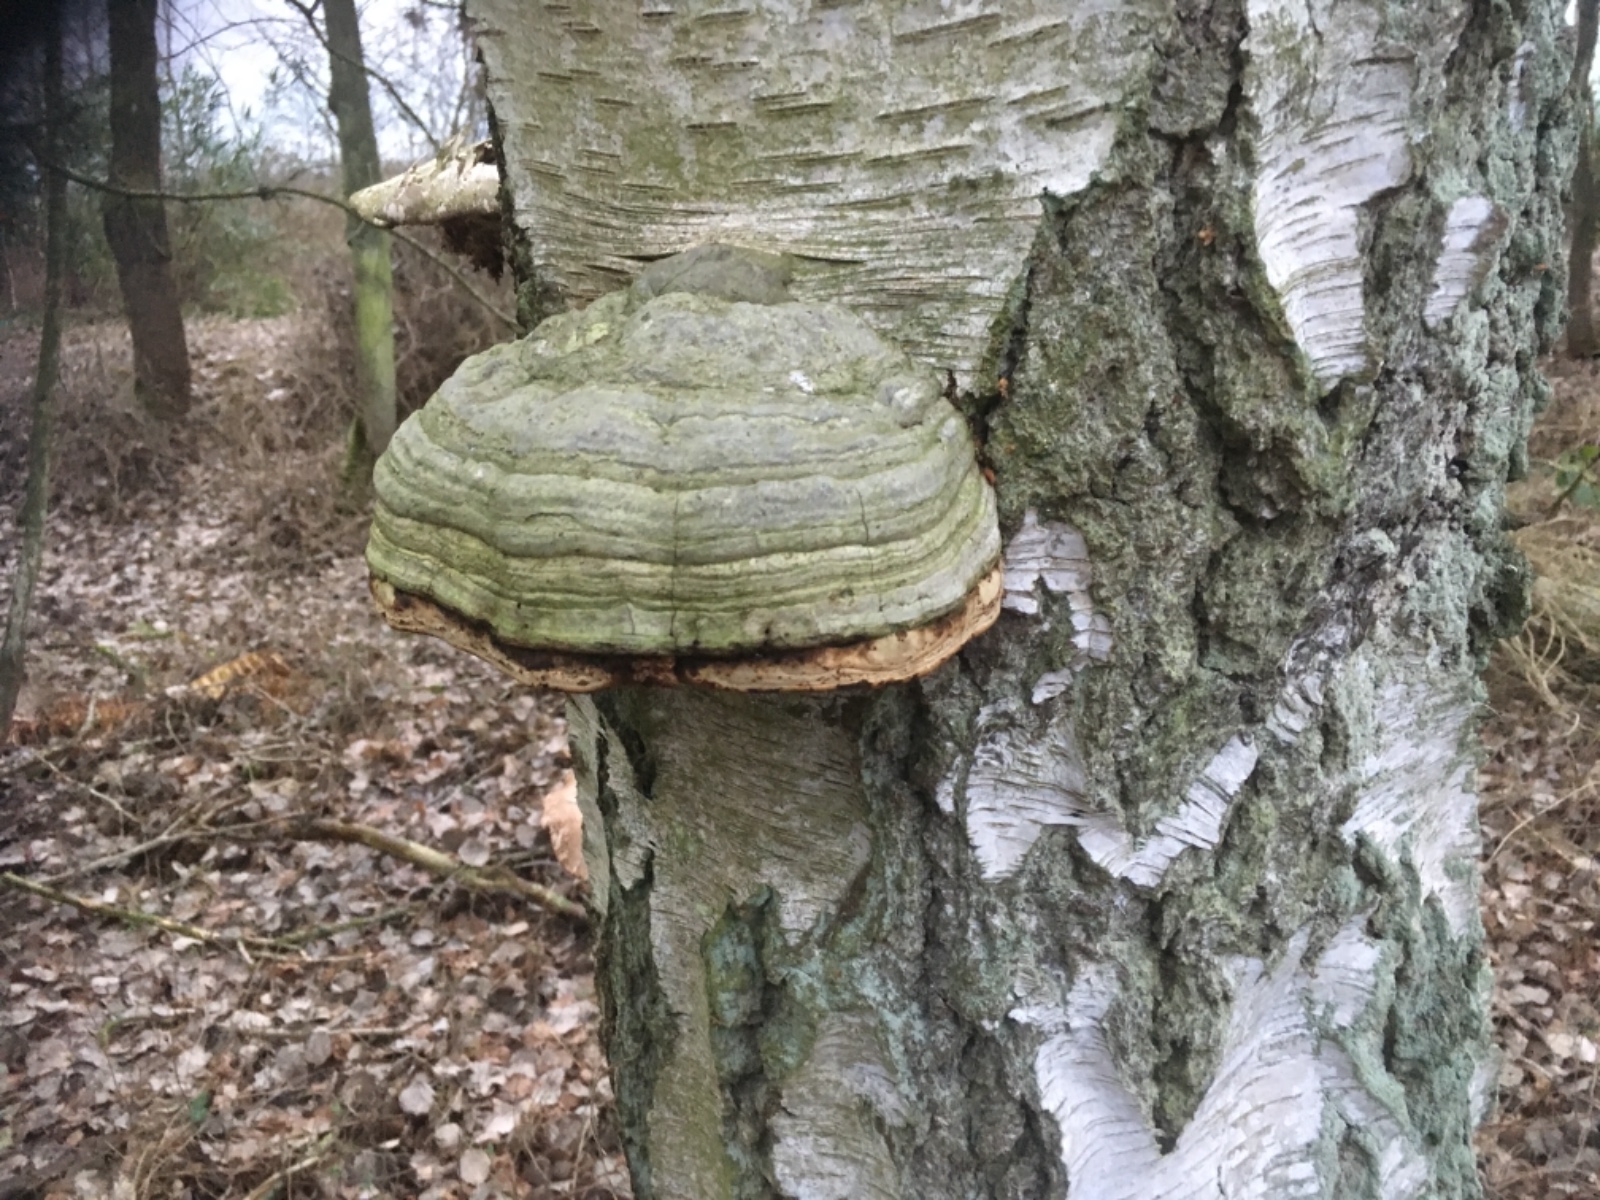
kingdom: Fungi
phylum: Basidiomycota
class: Agaricomycetes
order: Polyporales
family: Polyporaceae
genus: Fomes
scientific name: Fomes fomentarius
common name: tøndersvamp
